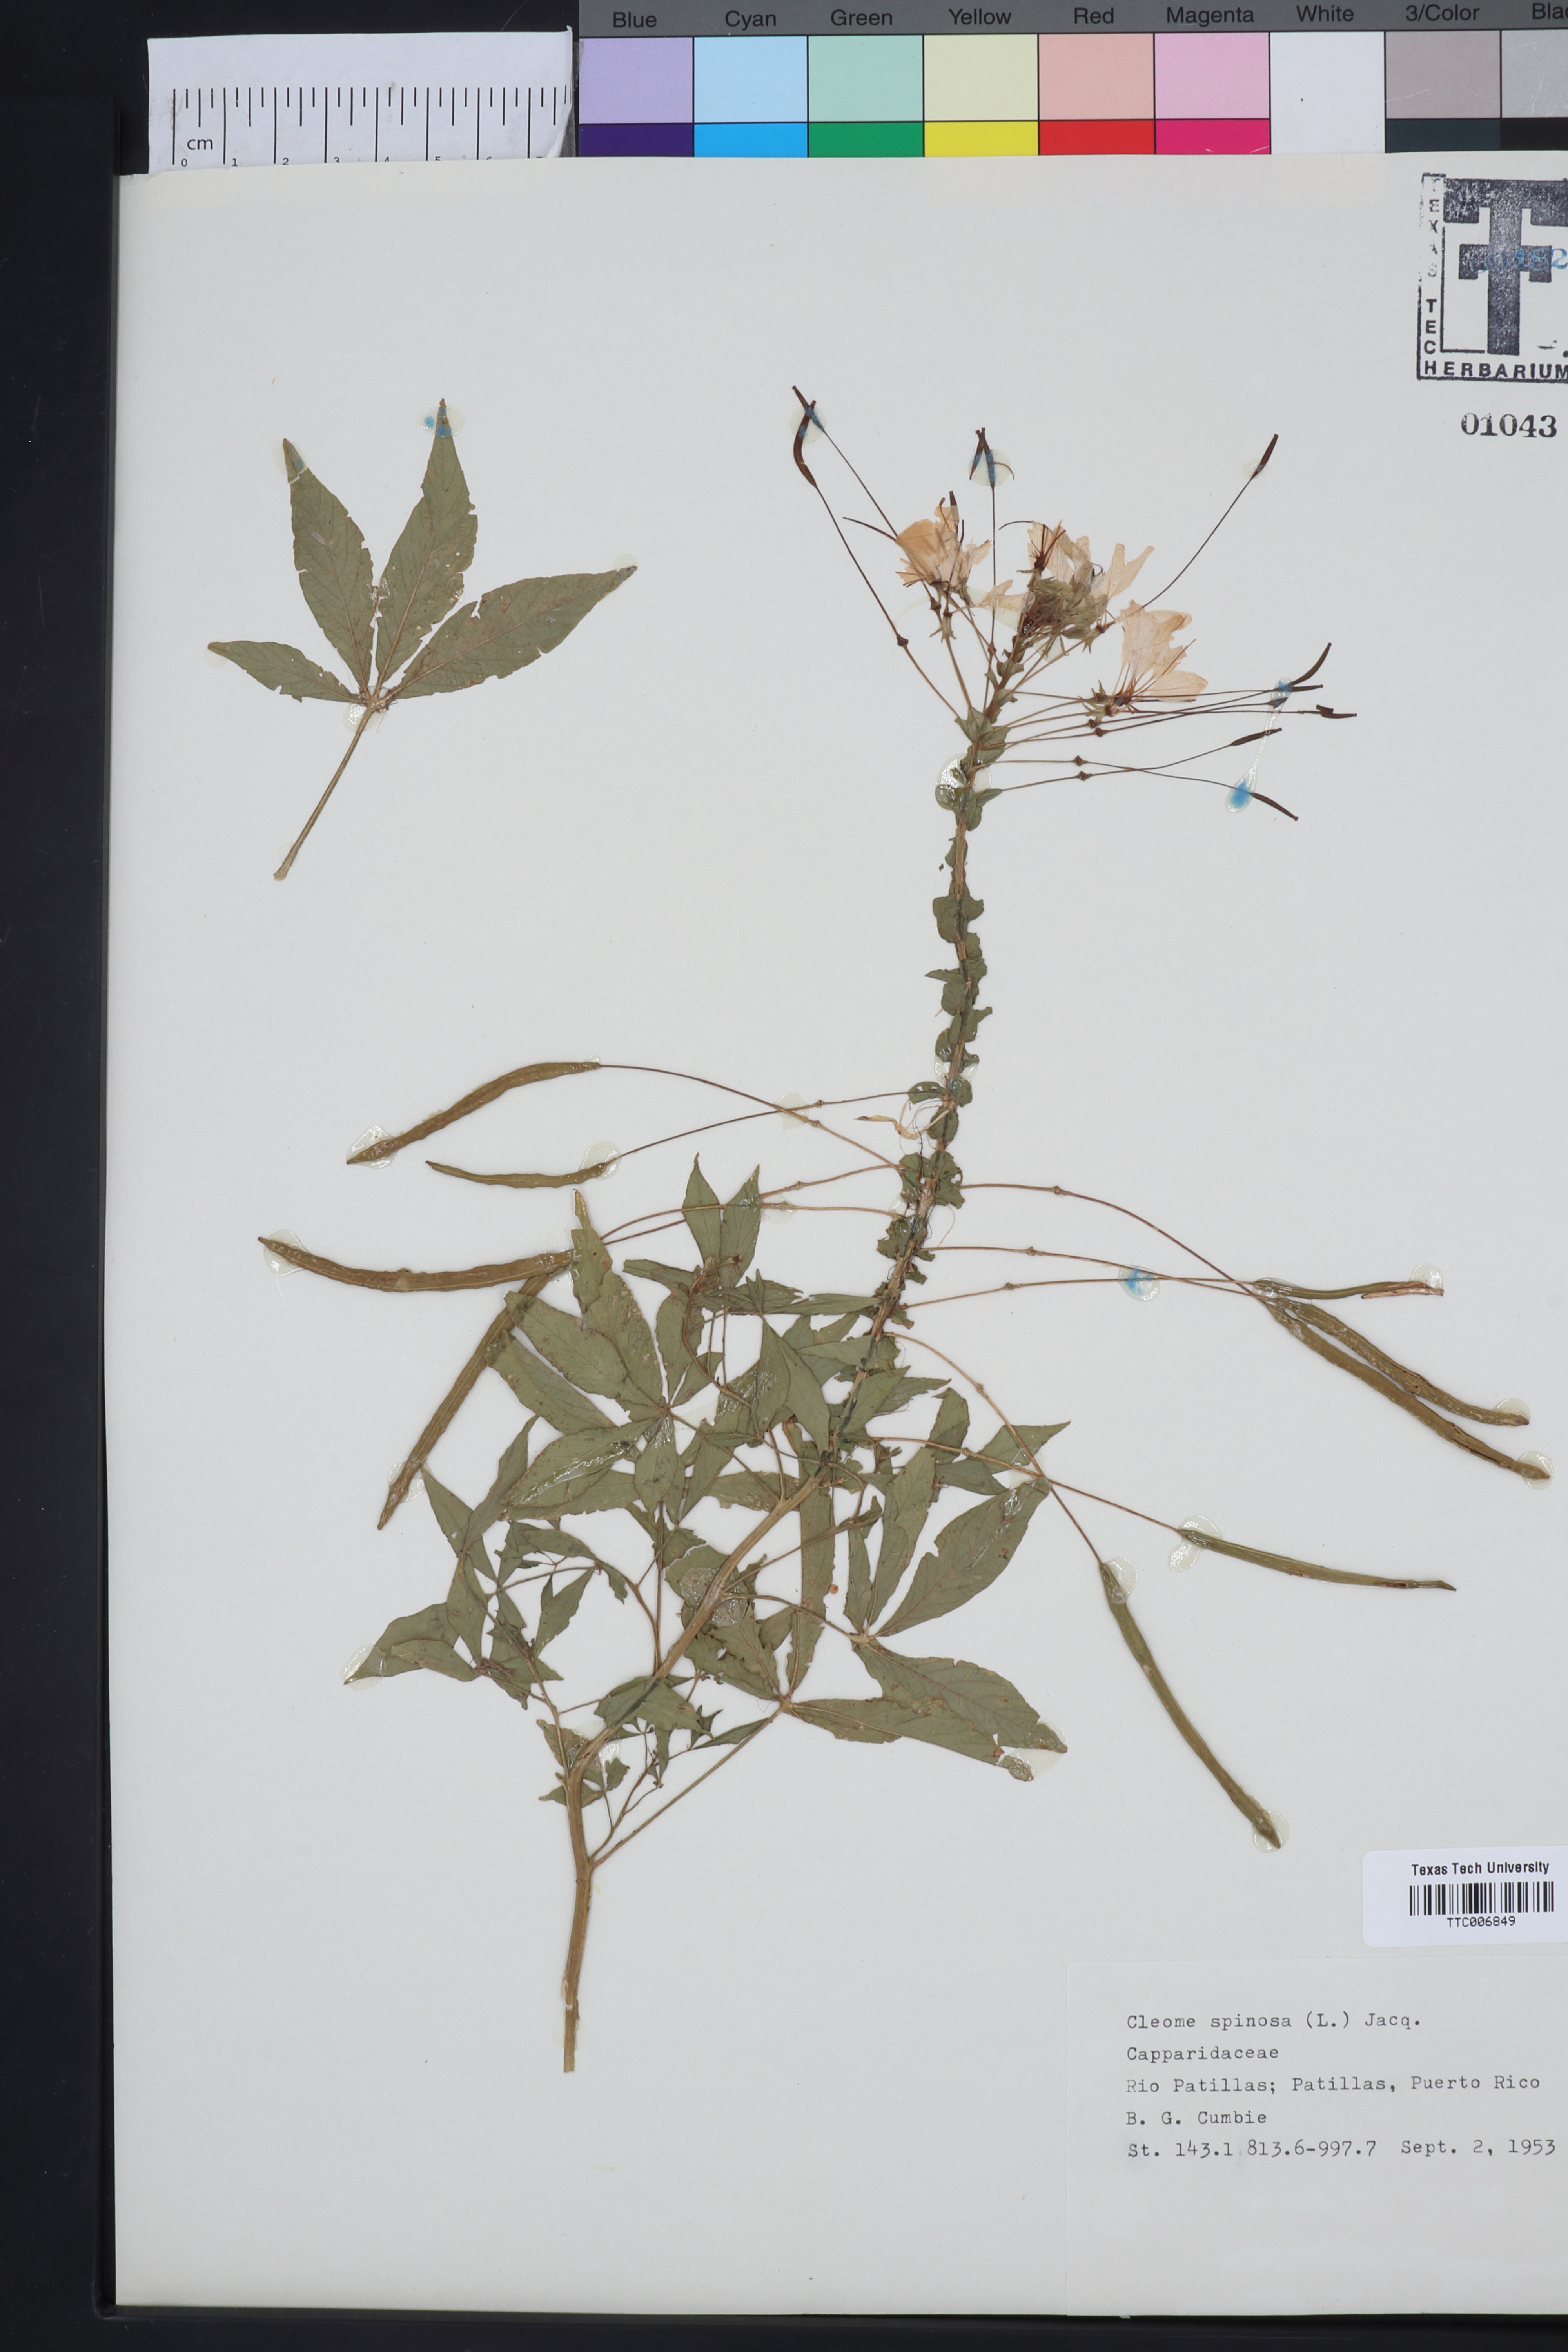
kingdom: Plantae
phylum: Tracheophyta
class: Magnoliopsida
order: Brassicales
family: Cleomaceae
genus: Tarenaya
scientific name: Tarenaya spinosa
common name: Spiny spiderflower
